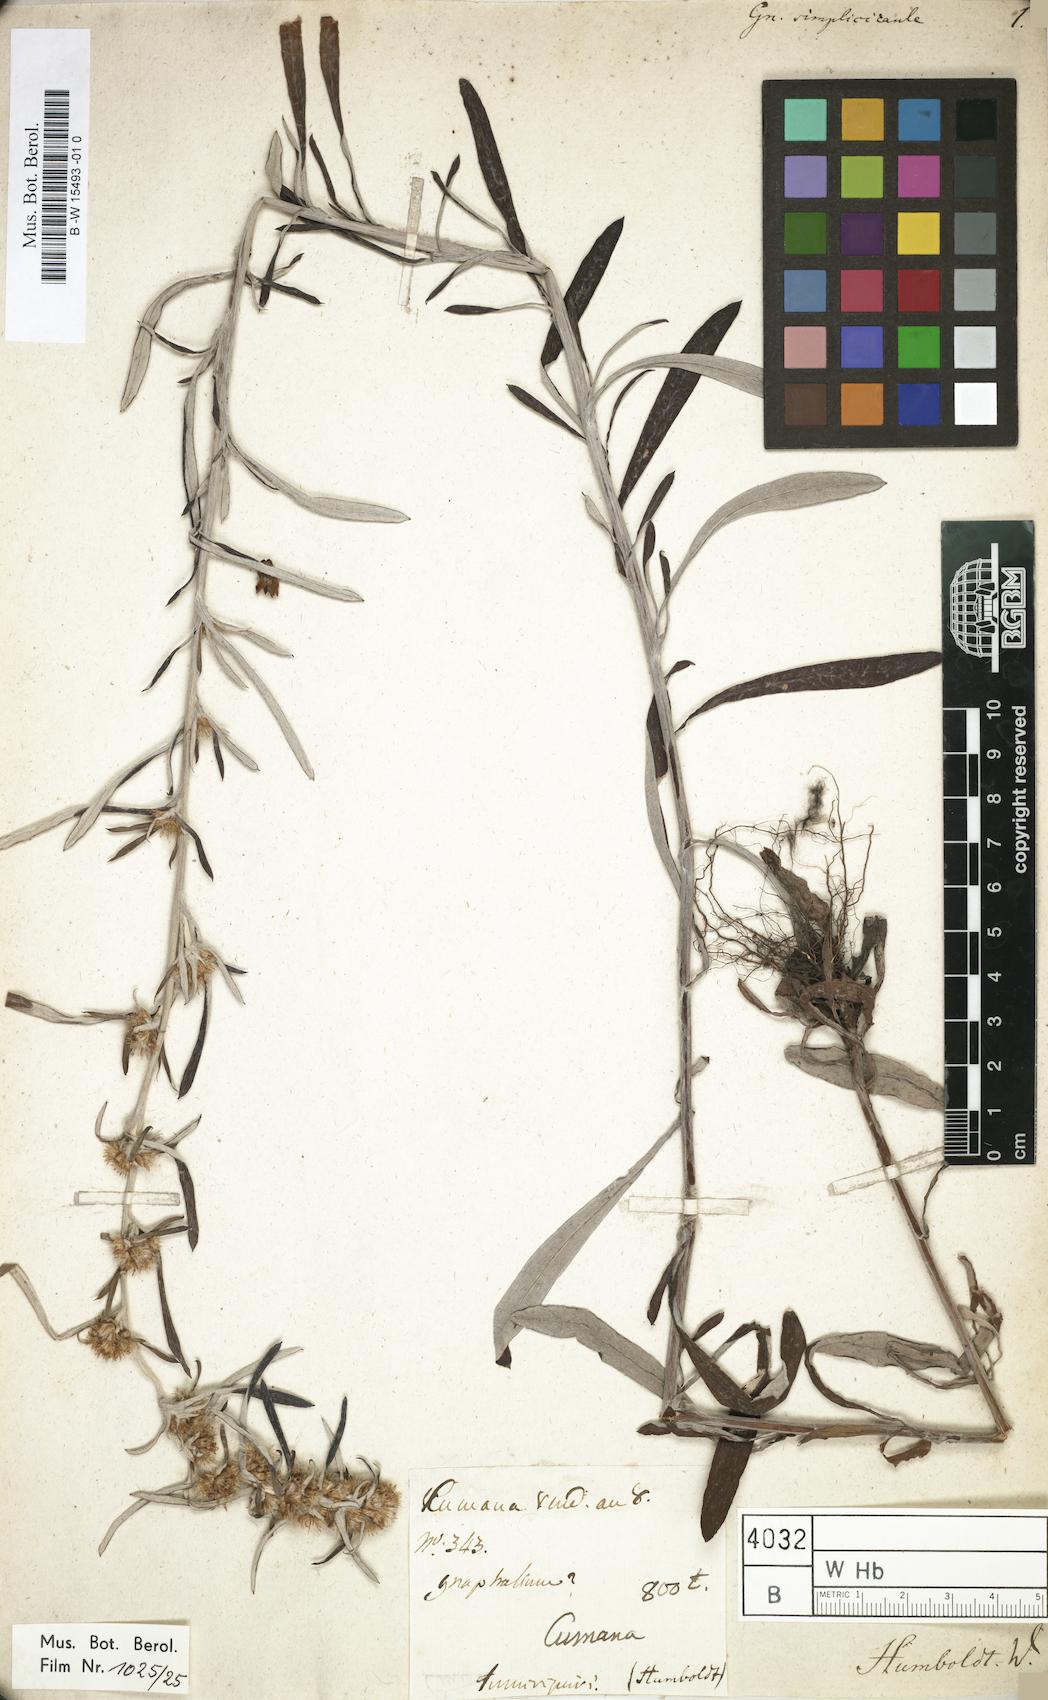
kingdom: Plantae
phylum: Tracheophyta
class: Magnoliopsida
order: Asterales
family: Asteraceae
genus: Gamochaeta
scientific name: Gamochaeta simplicicaulis
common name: Simple-stem everlasting
